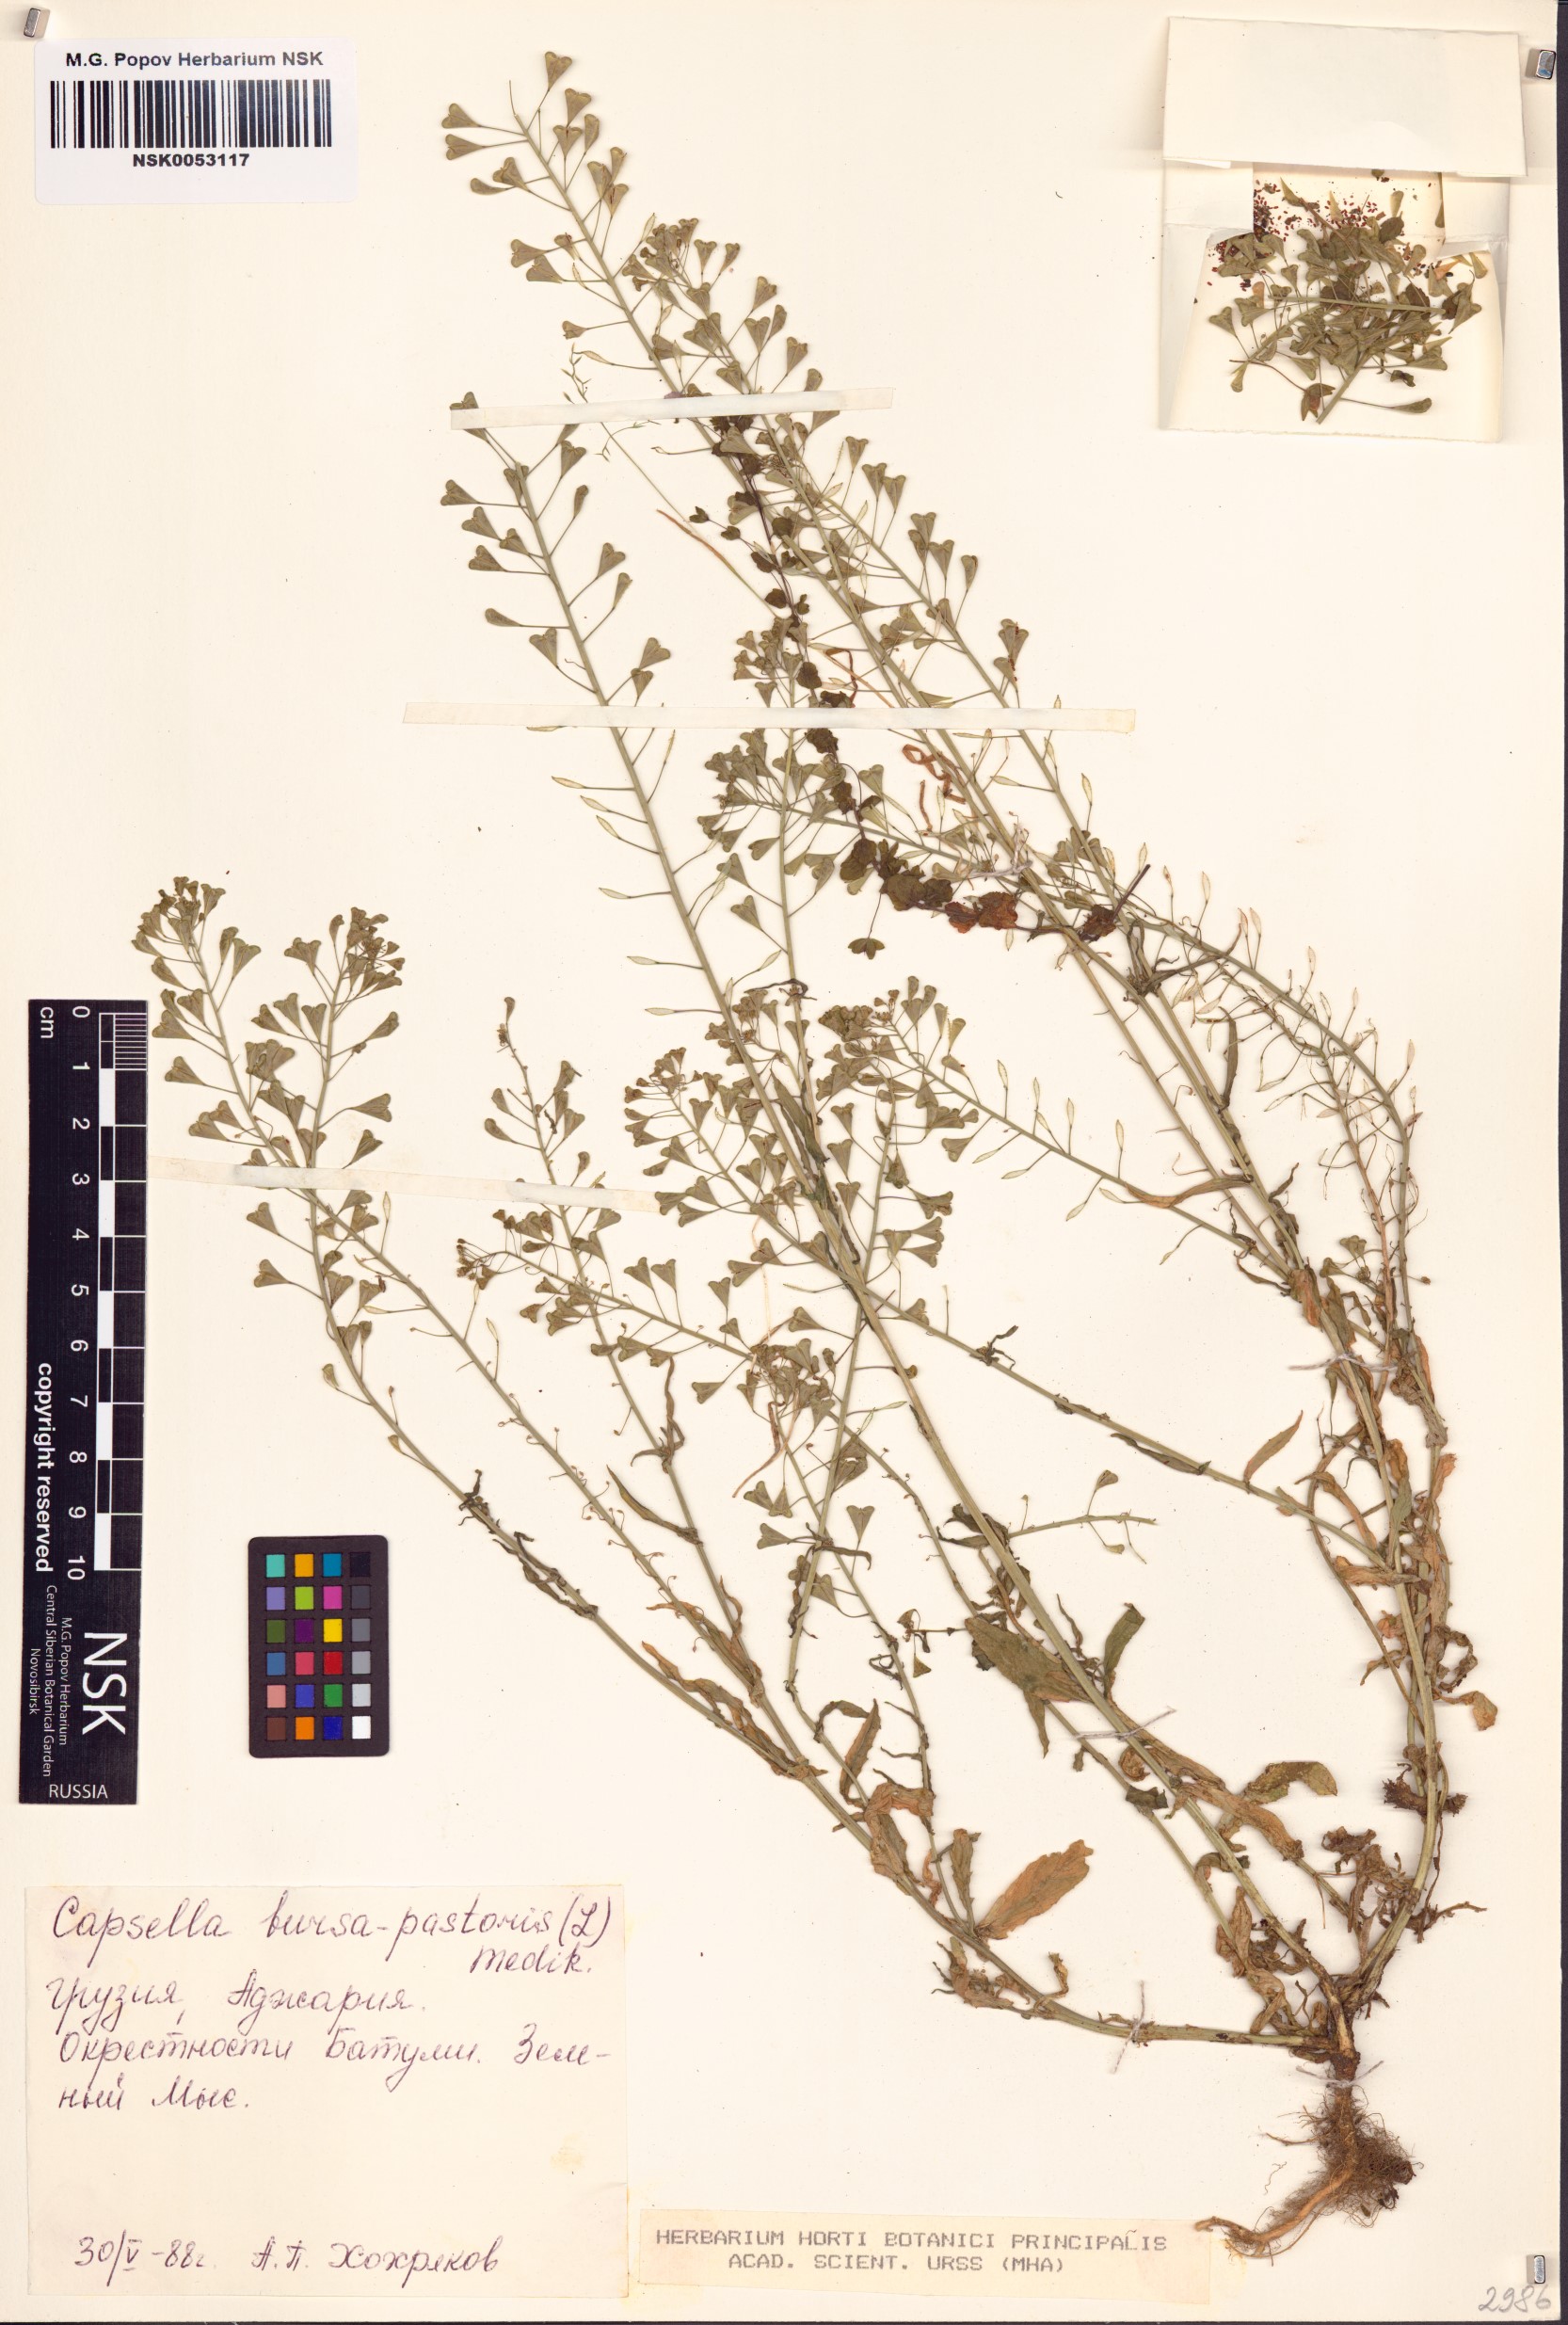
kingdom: Plantae
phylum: Tracheophyta
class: Magnoliopsida
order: Brassicales
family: Brassicaceae
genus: Capsella
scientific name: Capsella bursa-pastoris
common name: Shepherd's purse
